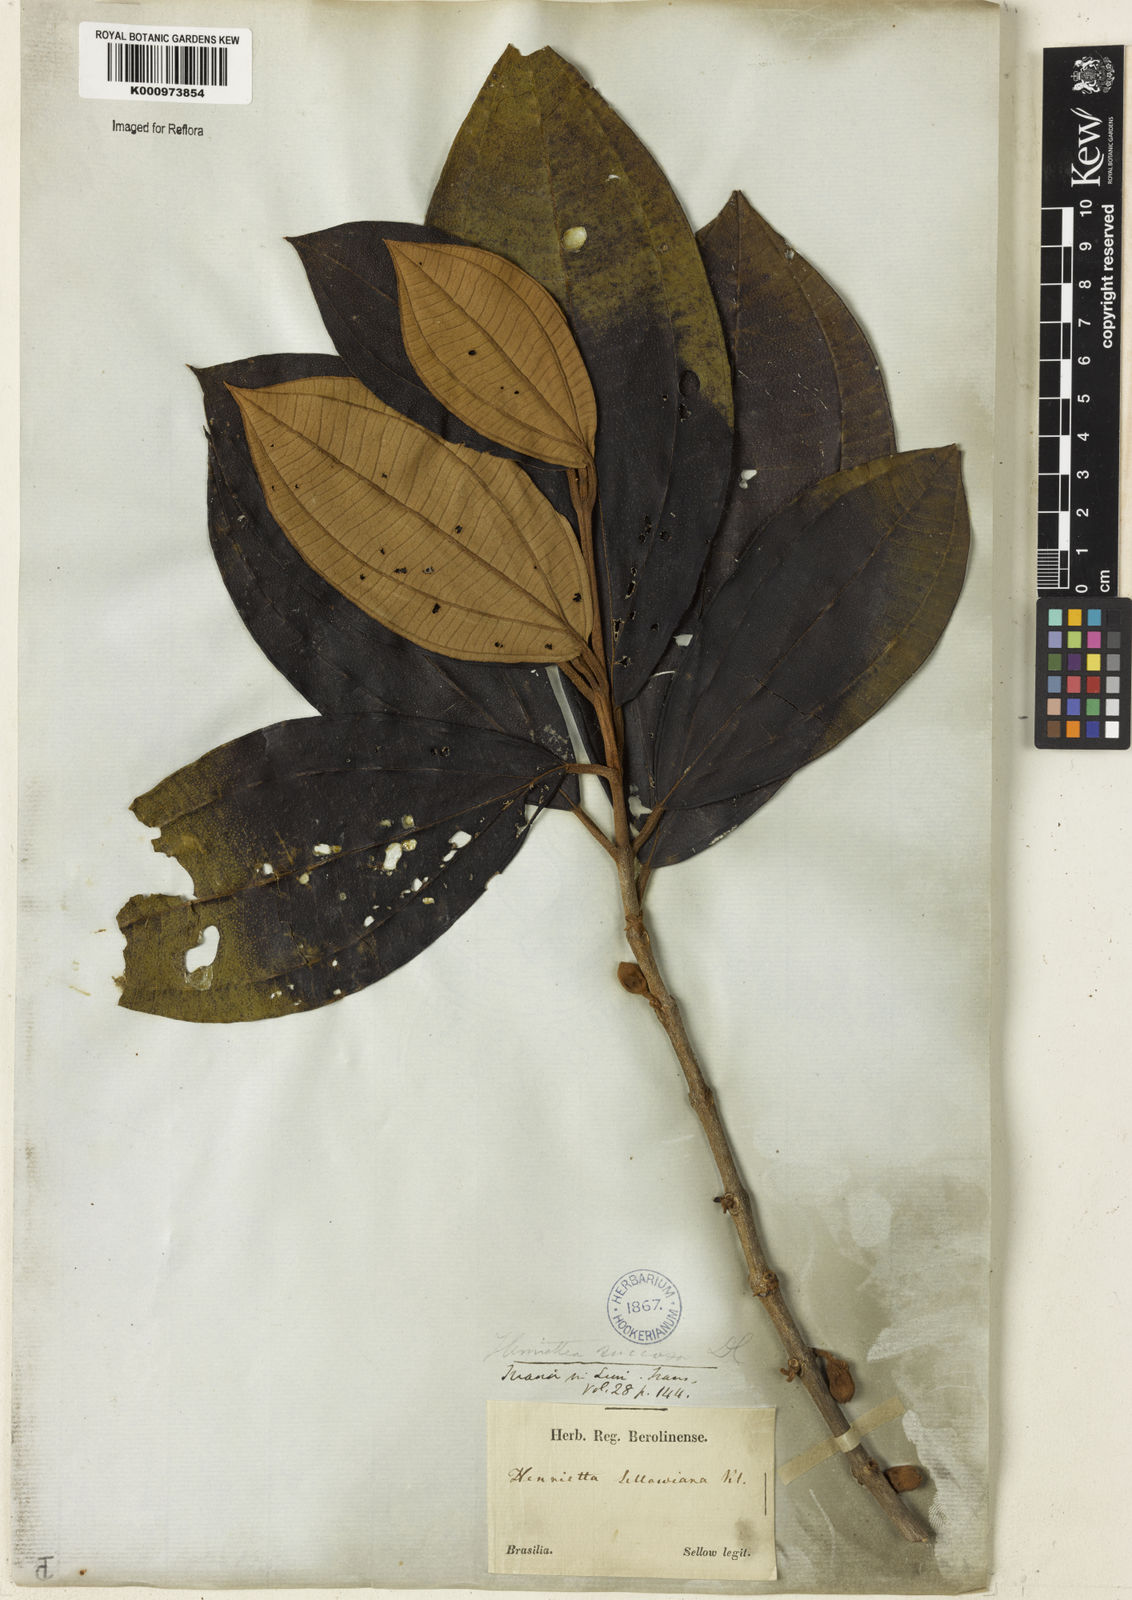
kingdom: Plantae
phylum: Tracheophyta
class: Magnoliopsida
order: Myrtales
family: Melastomataceae
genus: Henriettea
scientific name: Henriettea succosa
